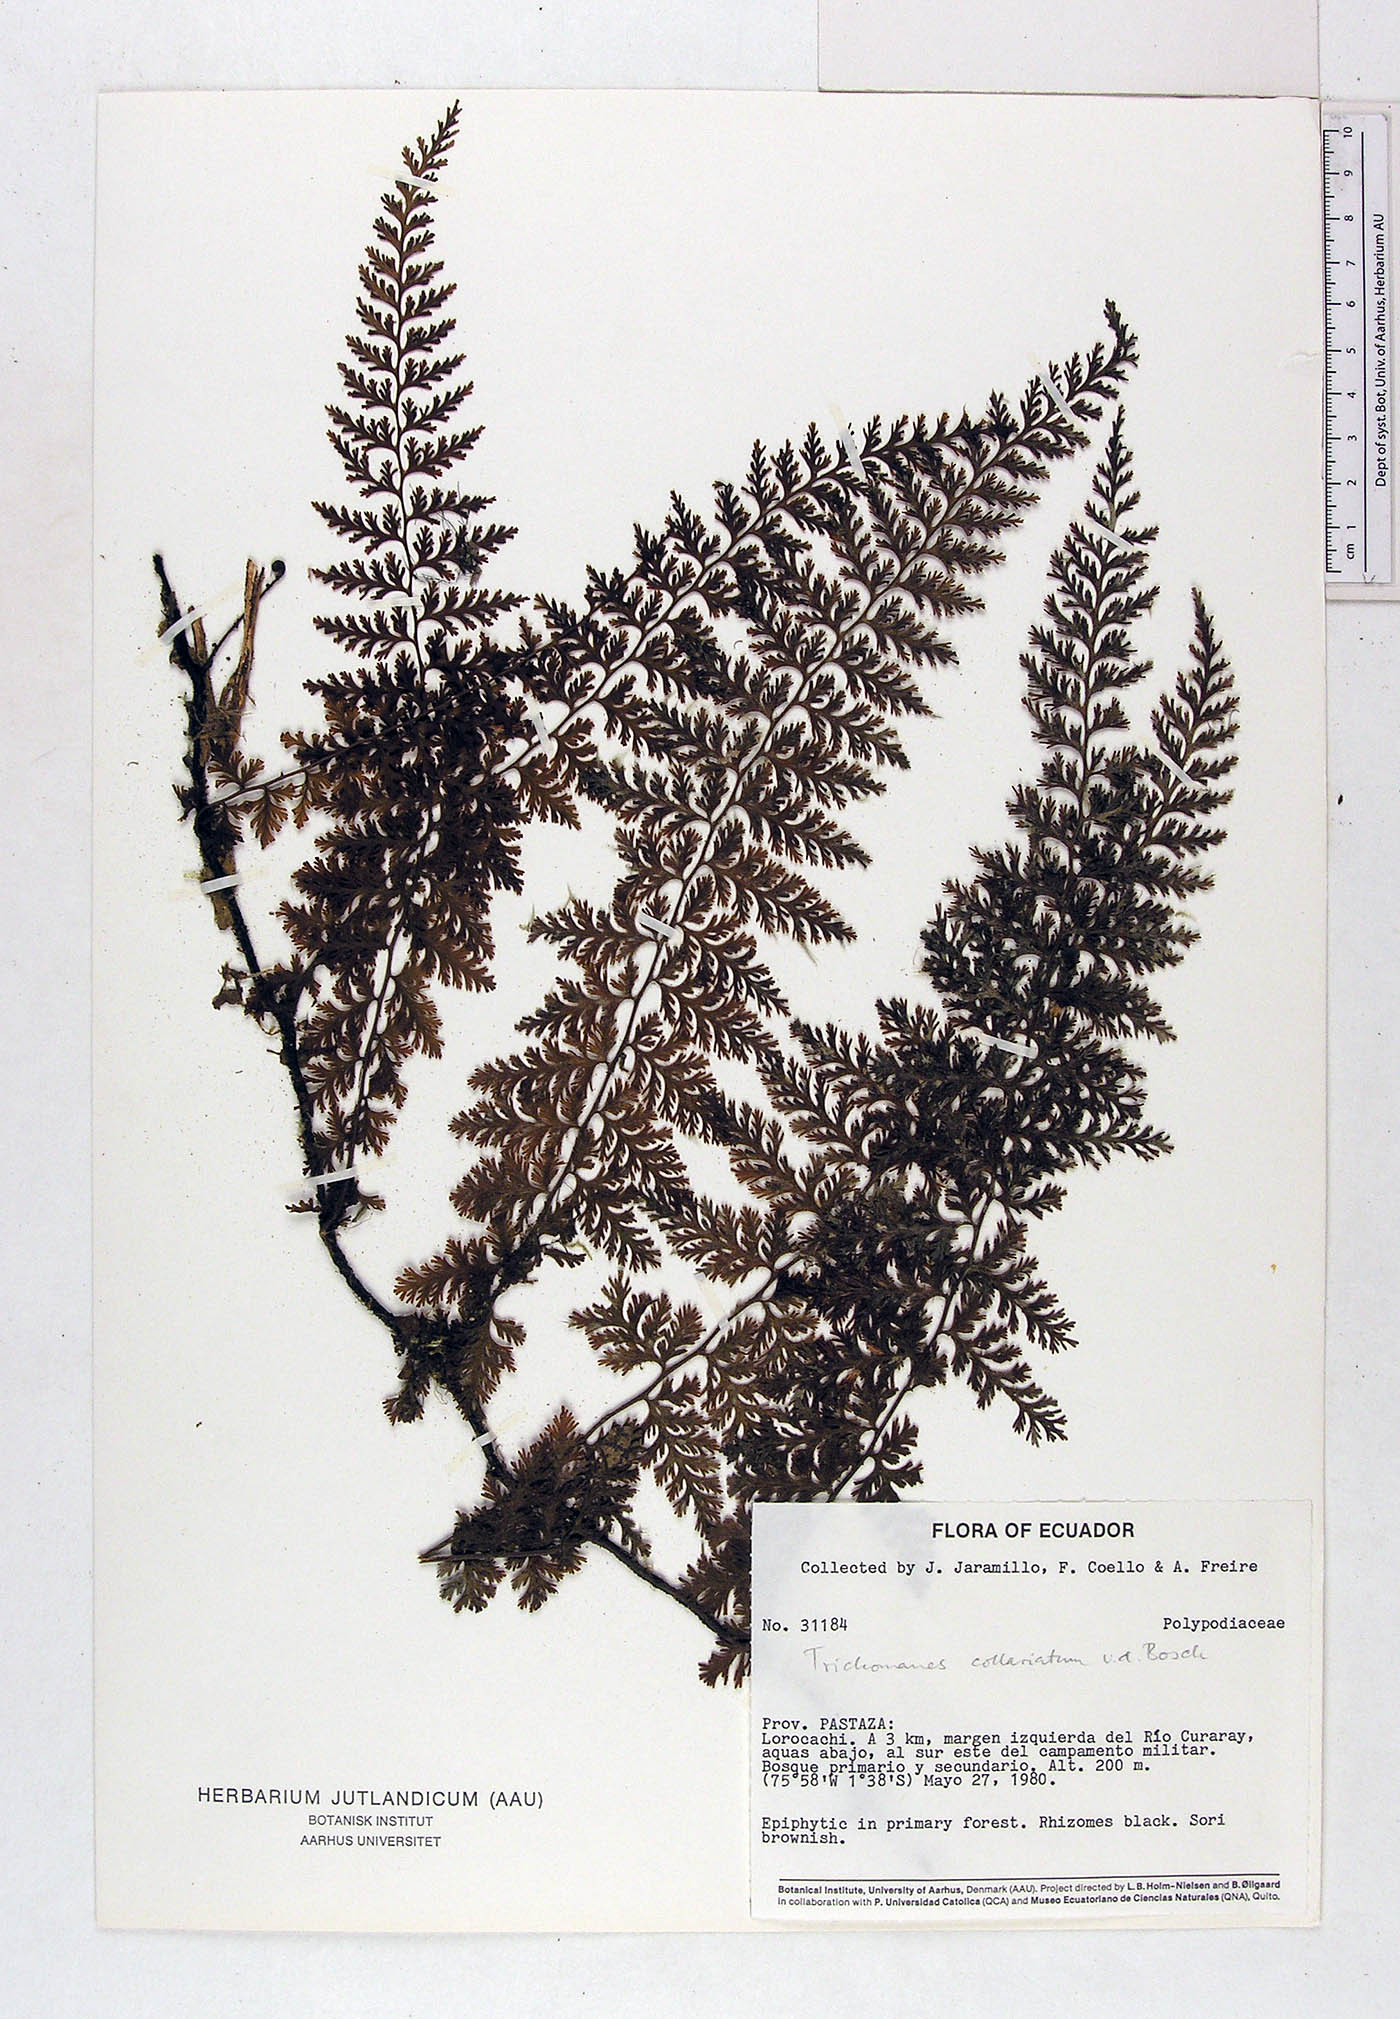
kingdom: Plantae
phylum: Tracheophyta
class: Polypodiopsida
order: Hymenophyllales
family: Hymenophyllaceae
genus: Vandenboschia
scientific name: Vandenboschia collariata
